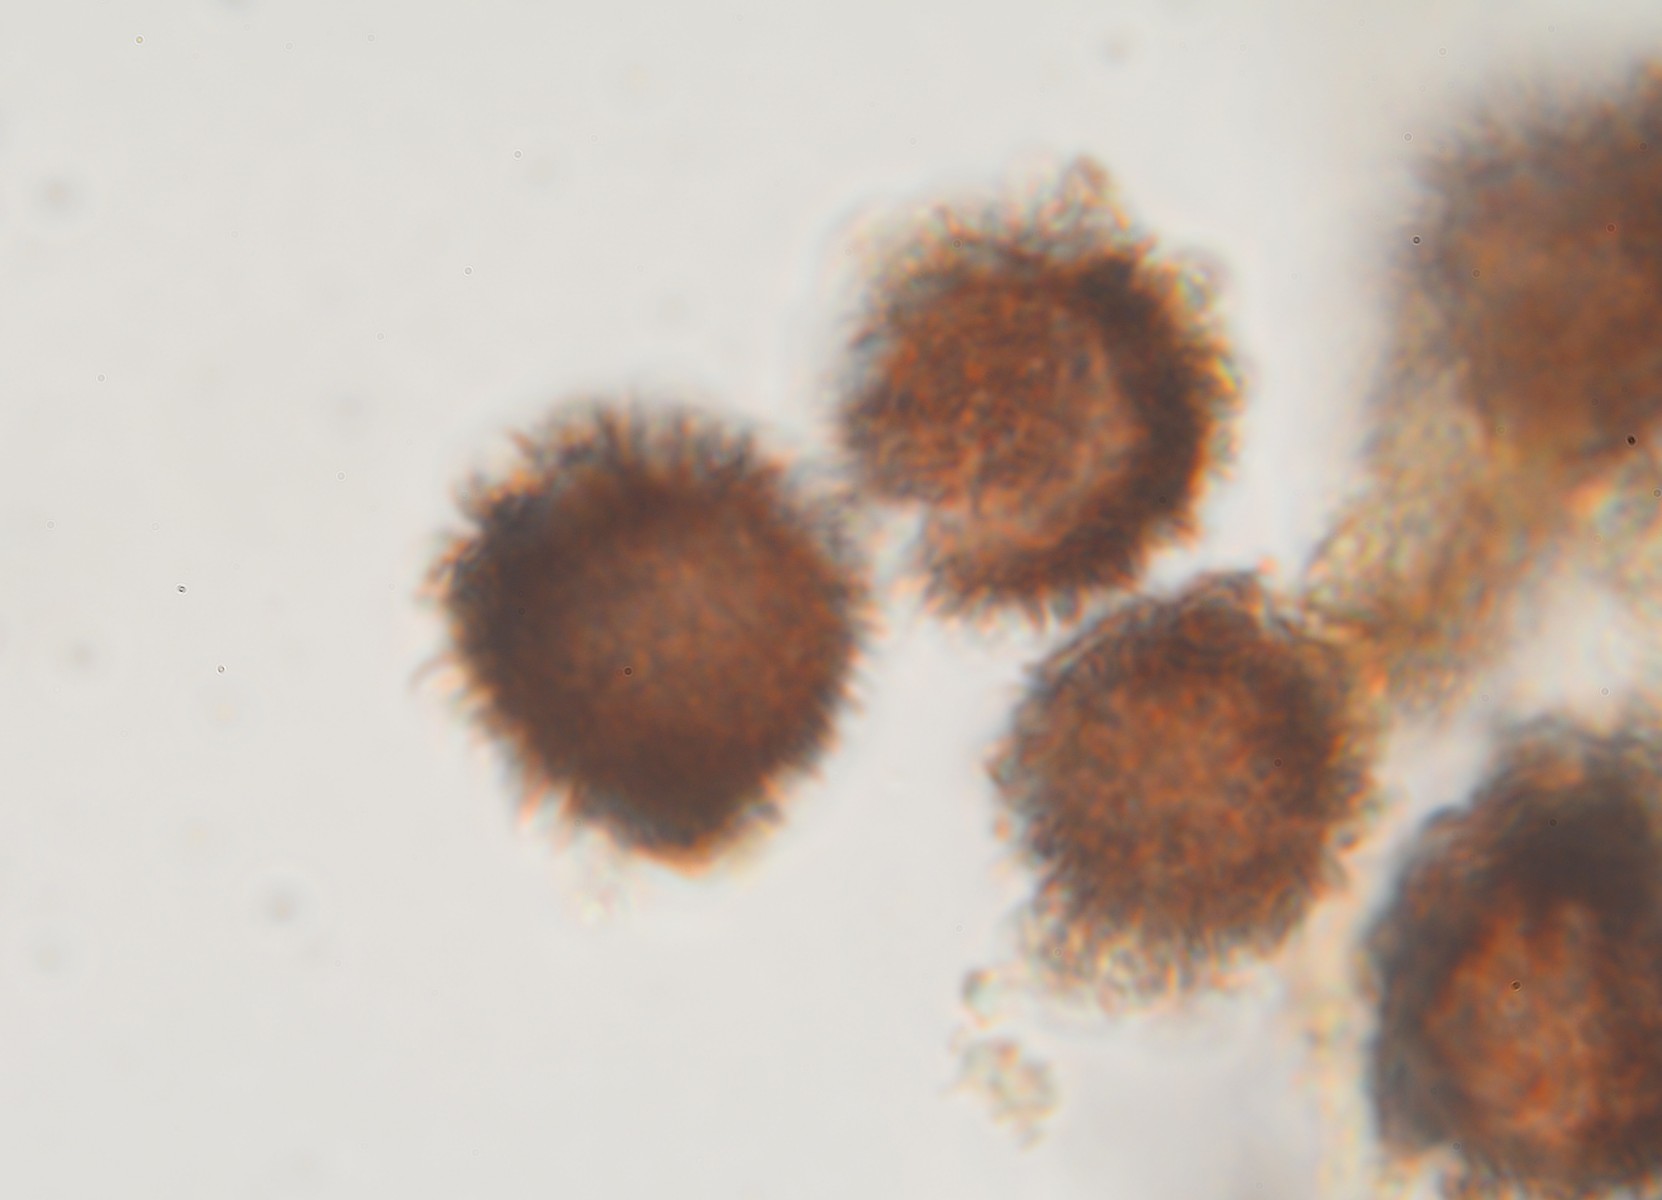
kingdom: Fungi
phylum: Basidiomycota
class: Agaricomycetes
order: Boletales
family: Sclerodermataceae
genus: Scleroderma
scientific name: Scleroderma verrucosum
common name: stilket bruskbold
